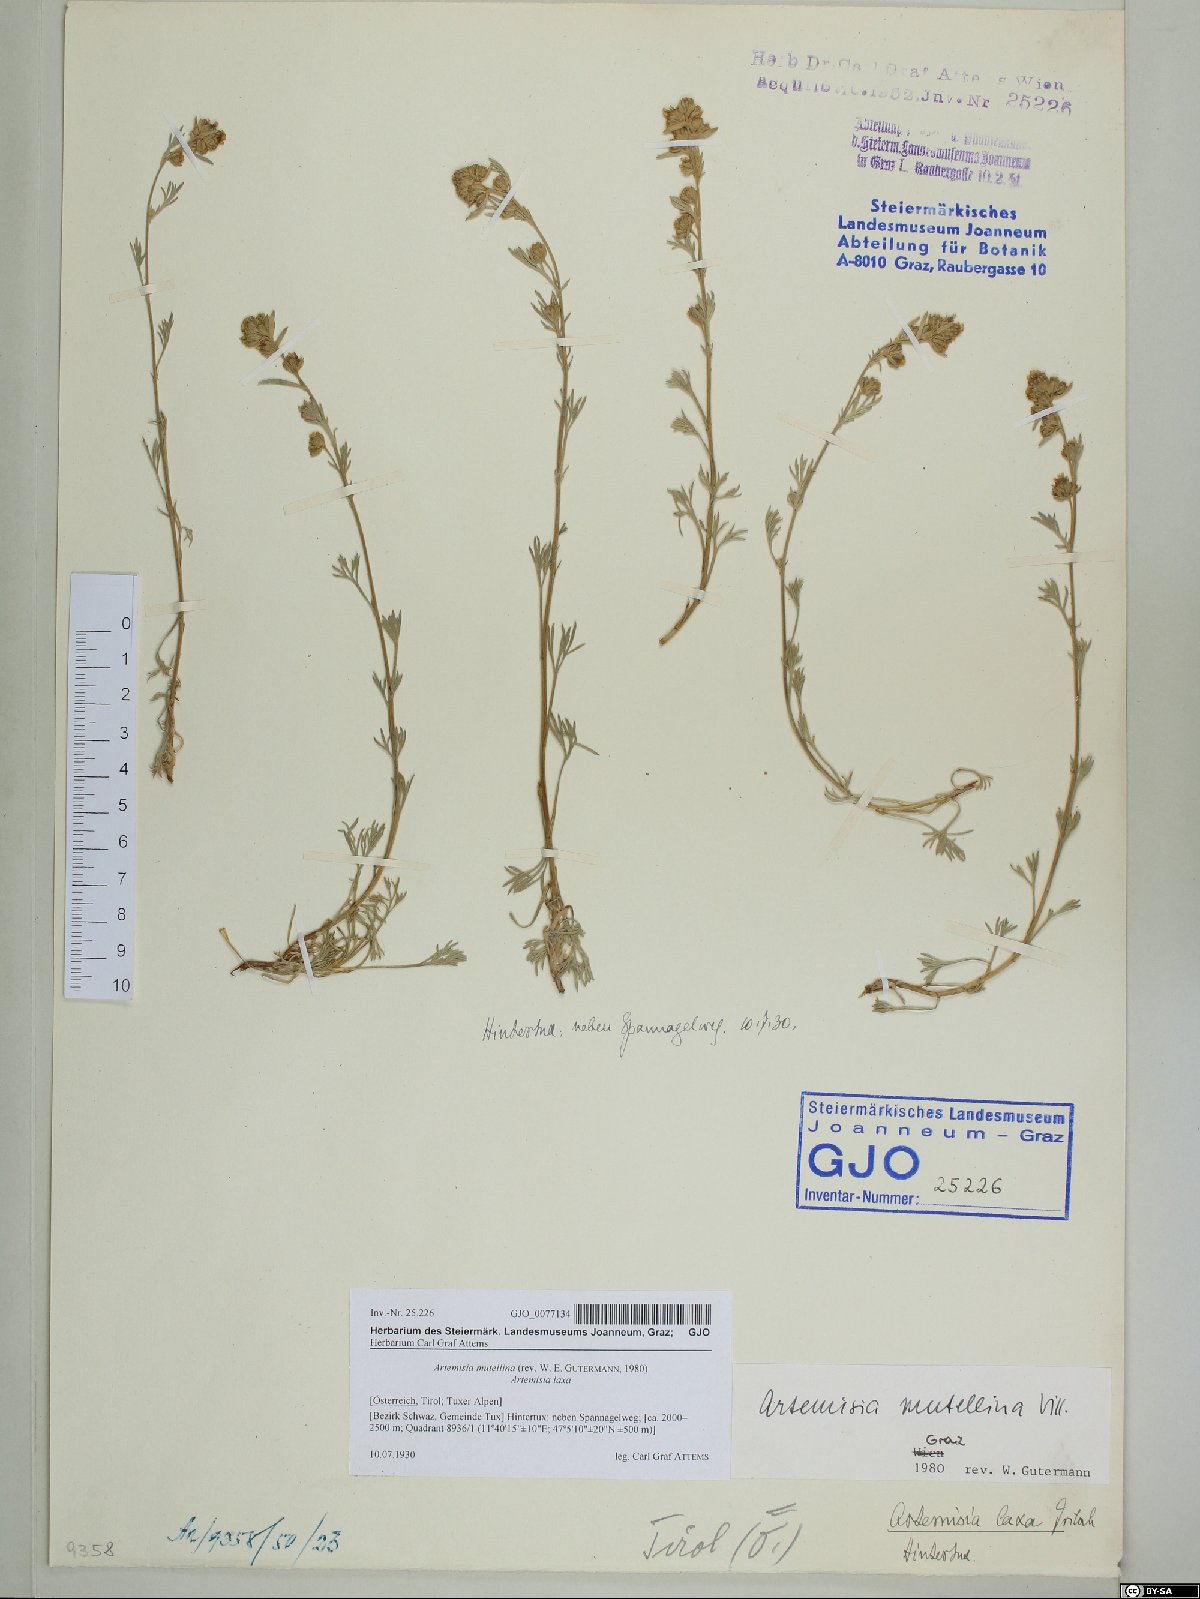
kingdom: Plantae
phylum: Tracheophyta
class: Magnoliopsida
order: Asterales
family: Asteraceae
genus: Artemisia
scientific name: Artemisia mutellina
